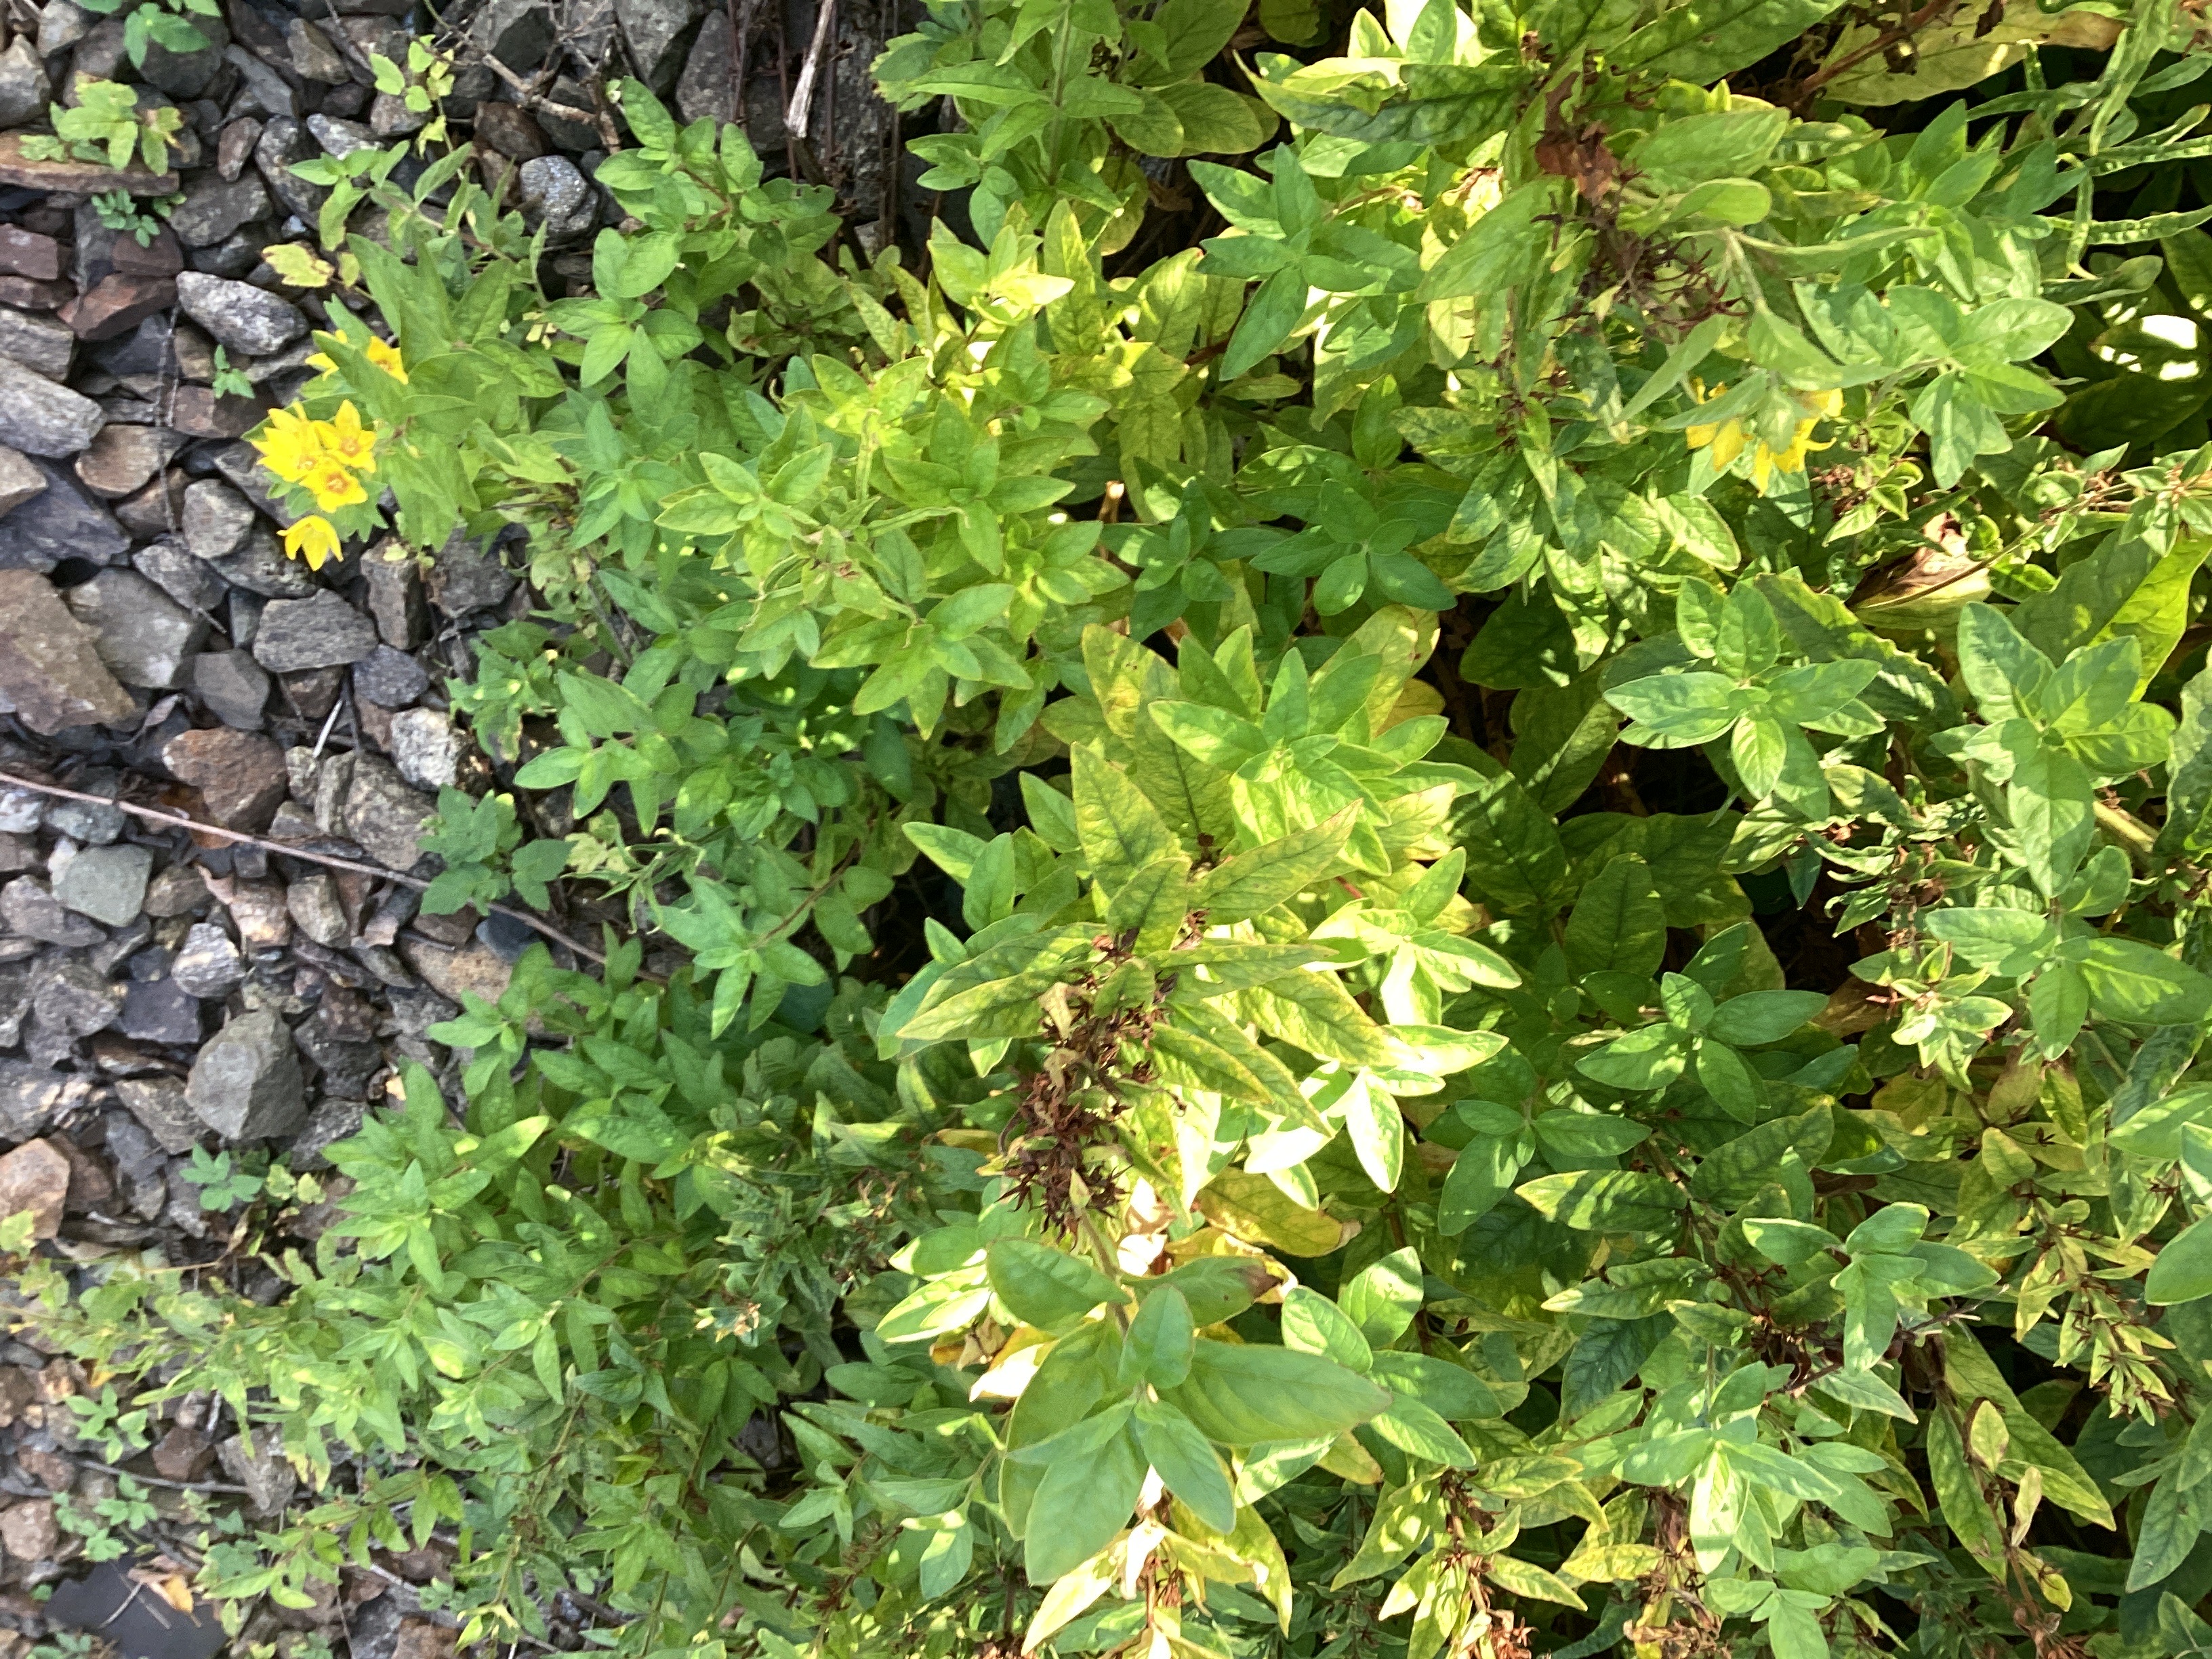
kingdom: Plantae
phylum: Tracheophyta
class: Magnoliopsida
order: Ericales
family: Primulaceae
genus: Lysimachia
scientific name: Lysimachia punctata
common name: fagerfredløs
